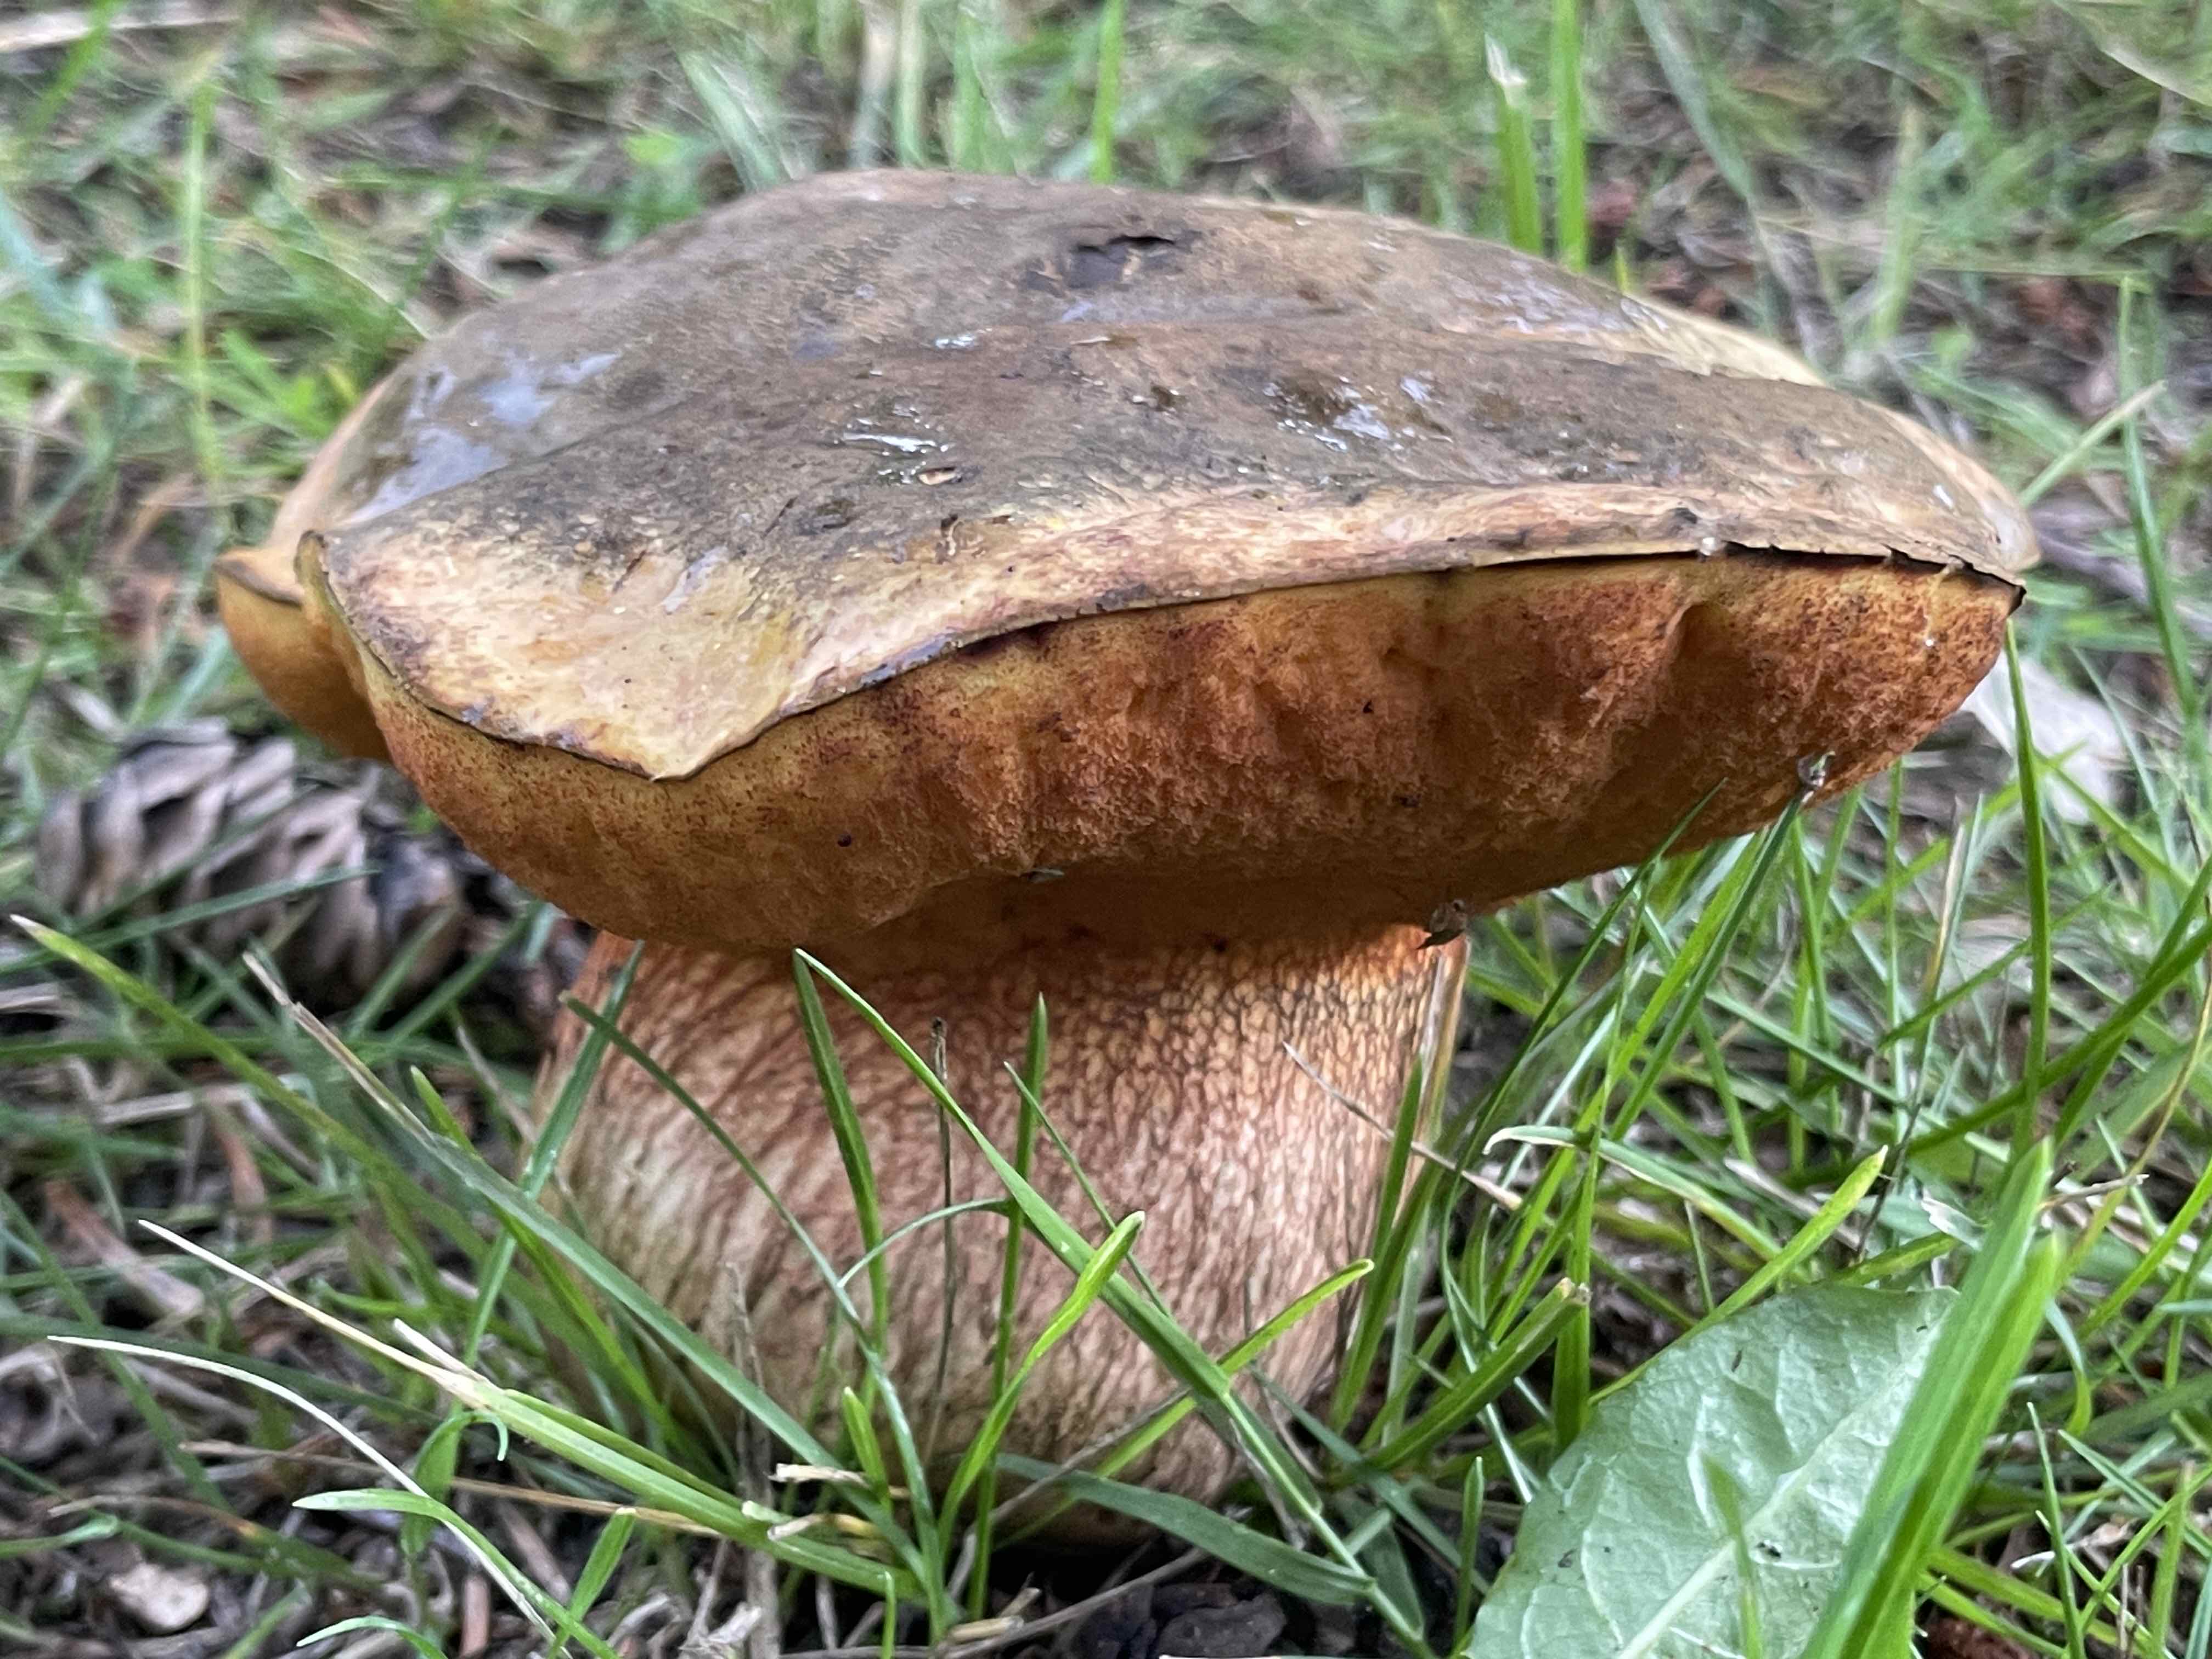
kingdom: Fungi
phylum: Basidiomycota
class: Agaricomycetes
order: Boletales
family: Boletaceae
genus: Suillellus
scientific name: Suillellus luridus
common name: netstokket indigorørhat
